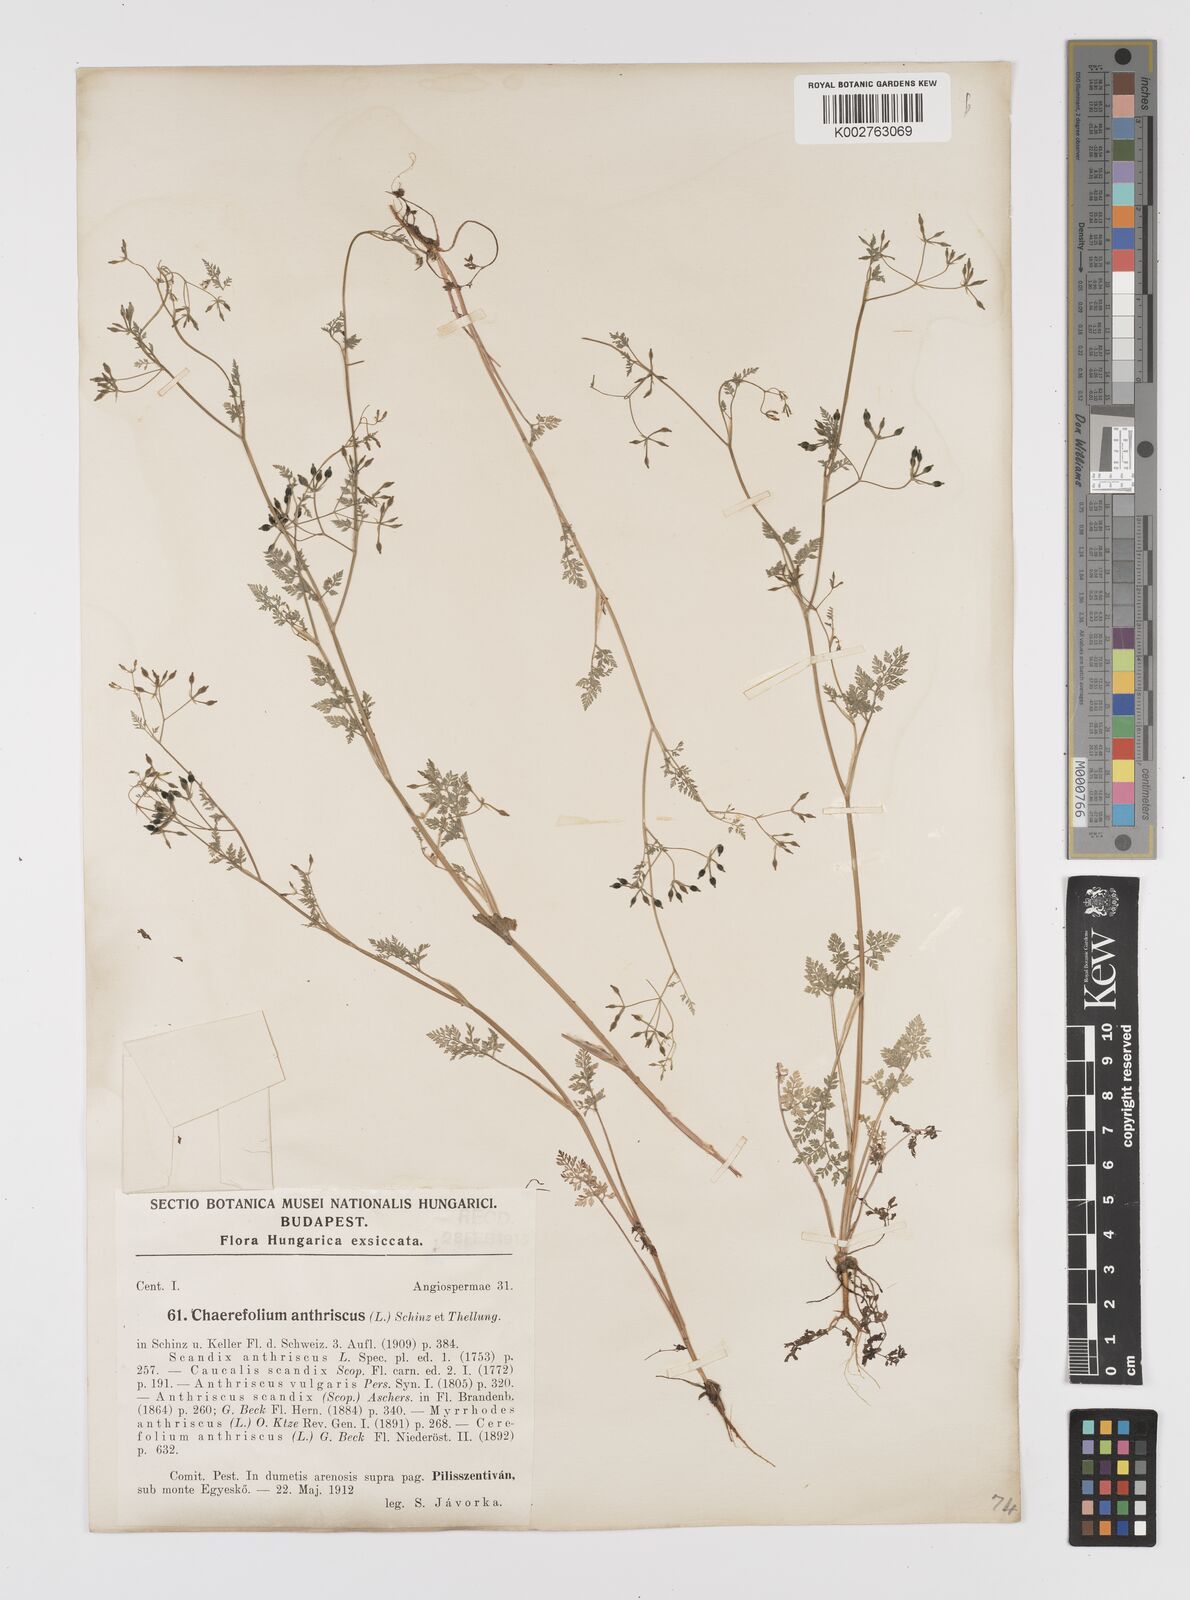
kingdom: Plantae
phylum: Tracheophyta
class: Magnoliopsida
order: Apiales
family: Apiaceae
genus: Anthriscus
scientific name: Anthriscus caucalis
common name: Bur chervil
